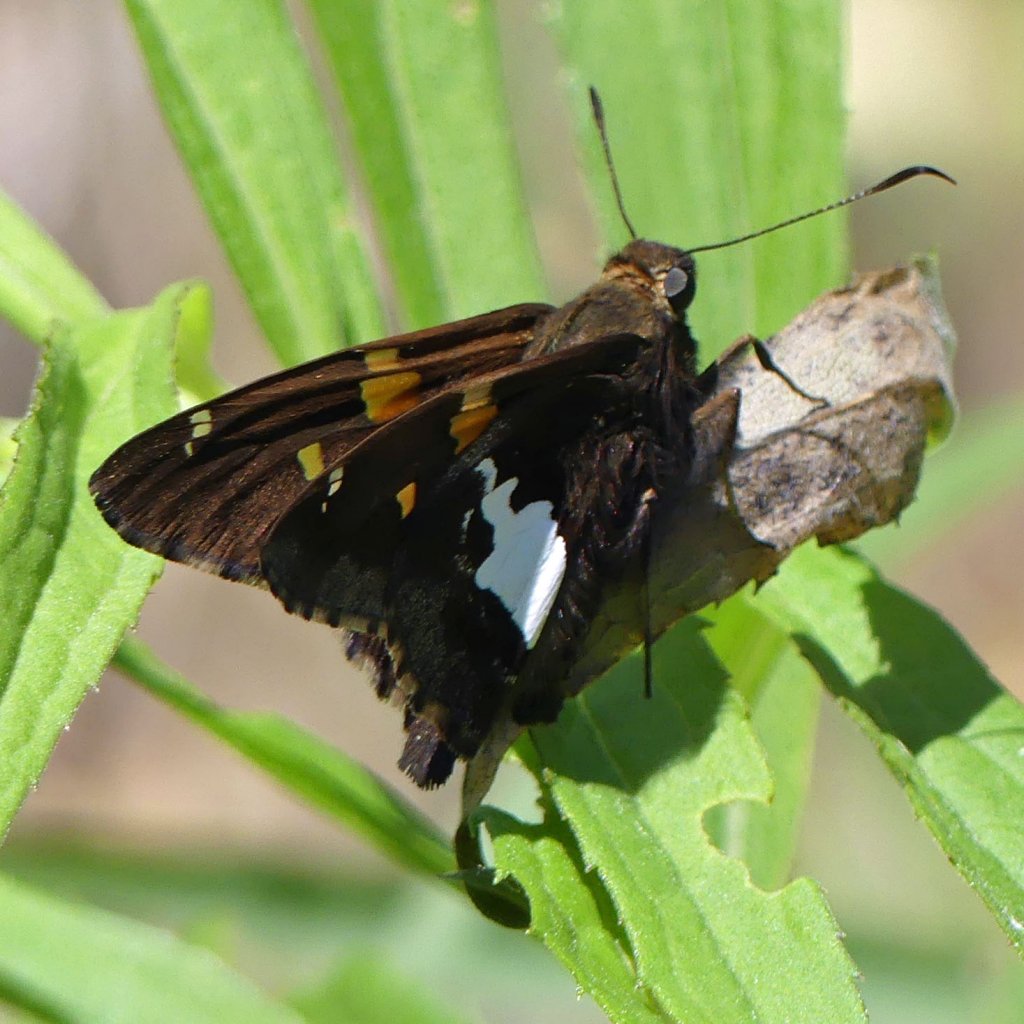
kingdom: Animalia
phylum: Arthropoda
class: Insecta
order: Lepidoptera
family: Hesperiidae
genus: Epargyreus
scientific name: Epargyreus clarus
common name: Silver-spotted Skipper
